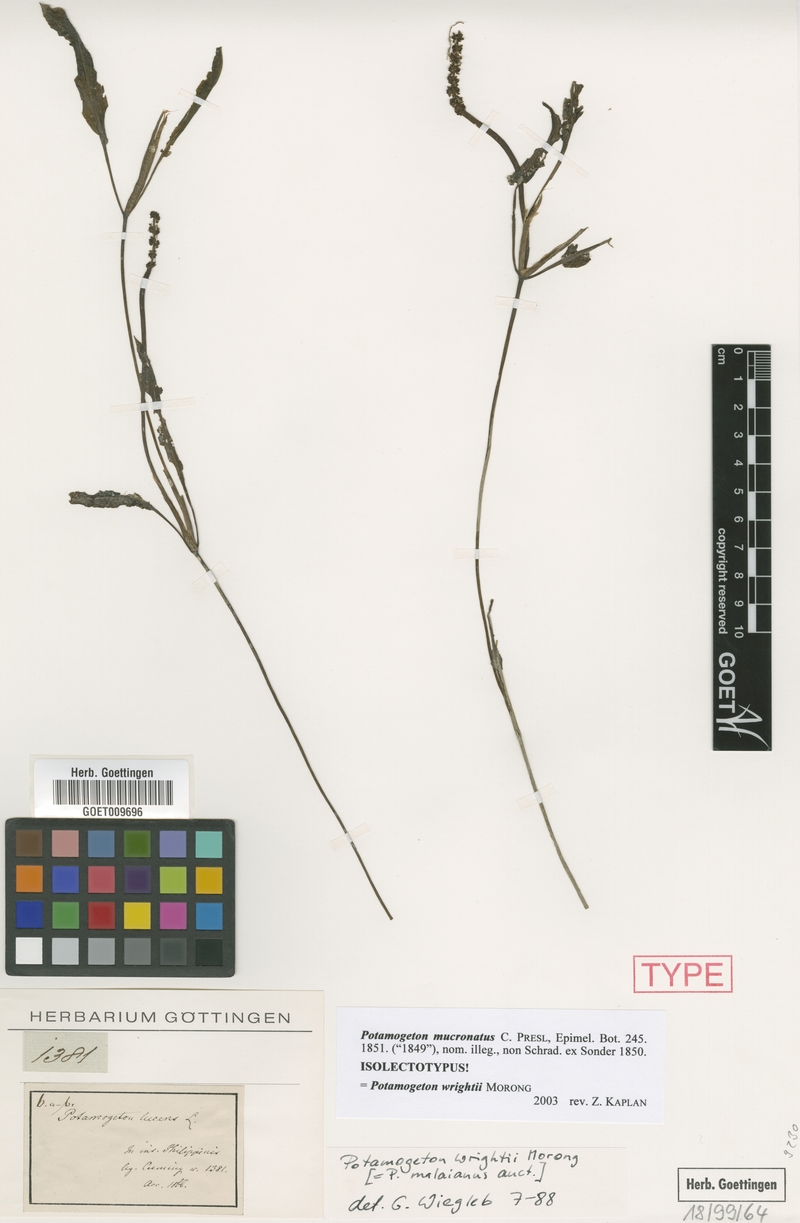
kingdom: Plantae
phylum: Tracheophyta
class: Liliopsida
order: Alismatales
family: Potamogetonaceae
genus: Potamogeton
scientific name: Potamogeton wrightii
